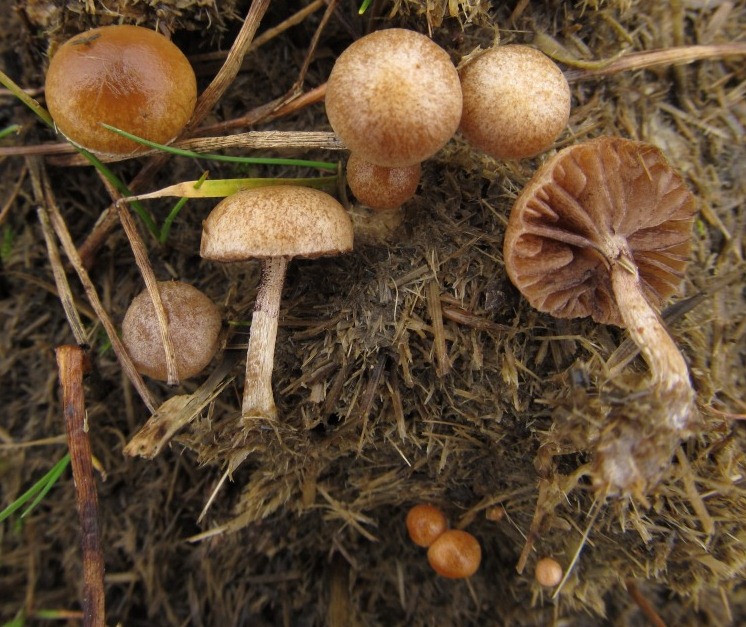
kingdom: Fungi
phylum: Basidiomycota
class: Agaricomycetes
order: Agaricales
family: Strophariaceae
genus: Deconica
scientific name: Deconica coprophila
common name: gødnings-stråhat
